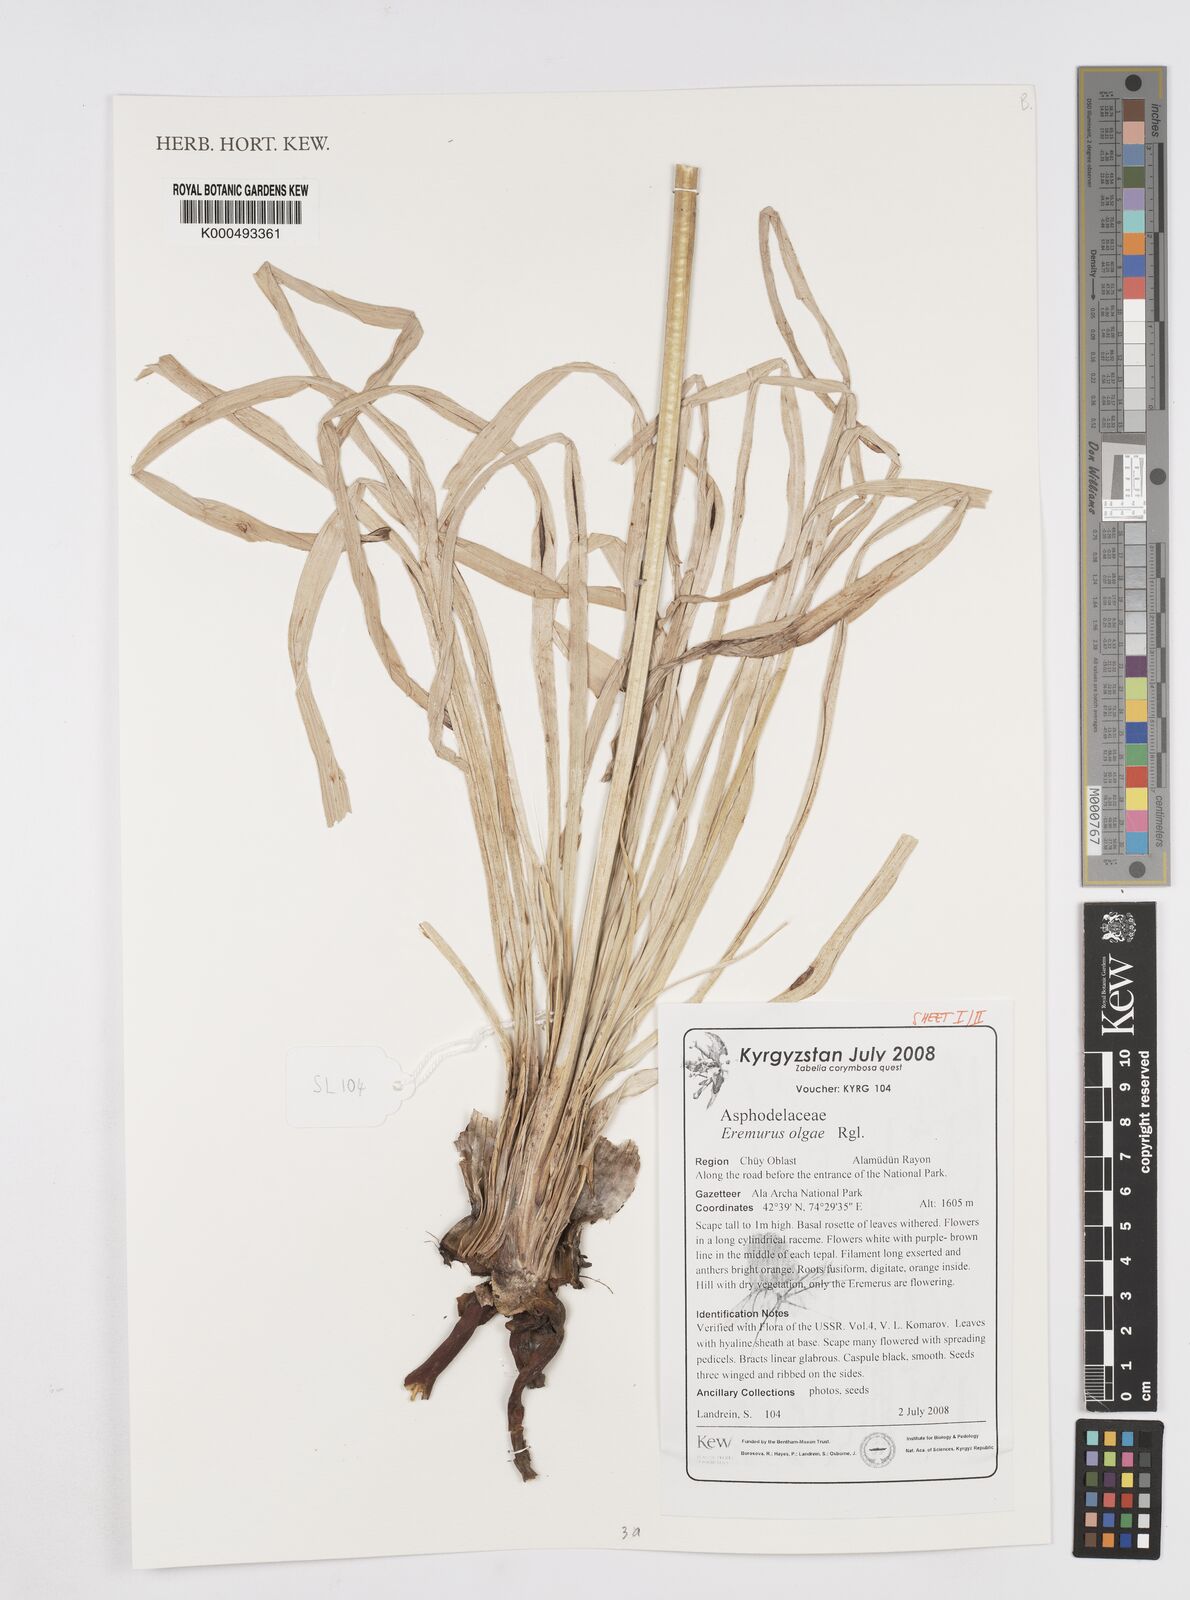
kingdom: Plantae
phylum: Tracheophyta
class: Liliopsida
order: Asparagales
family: Asphodelaceae
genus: Eremurus
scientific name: Eremurus olgae
